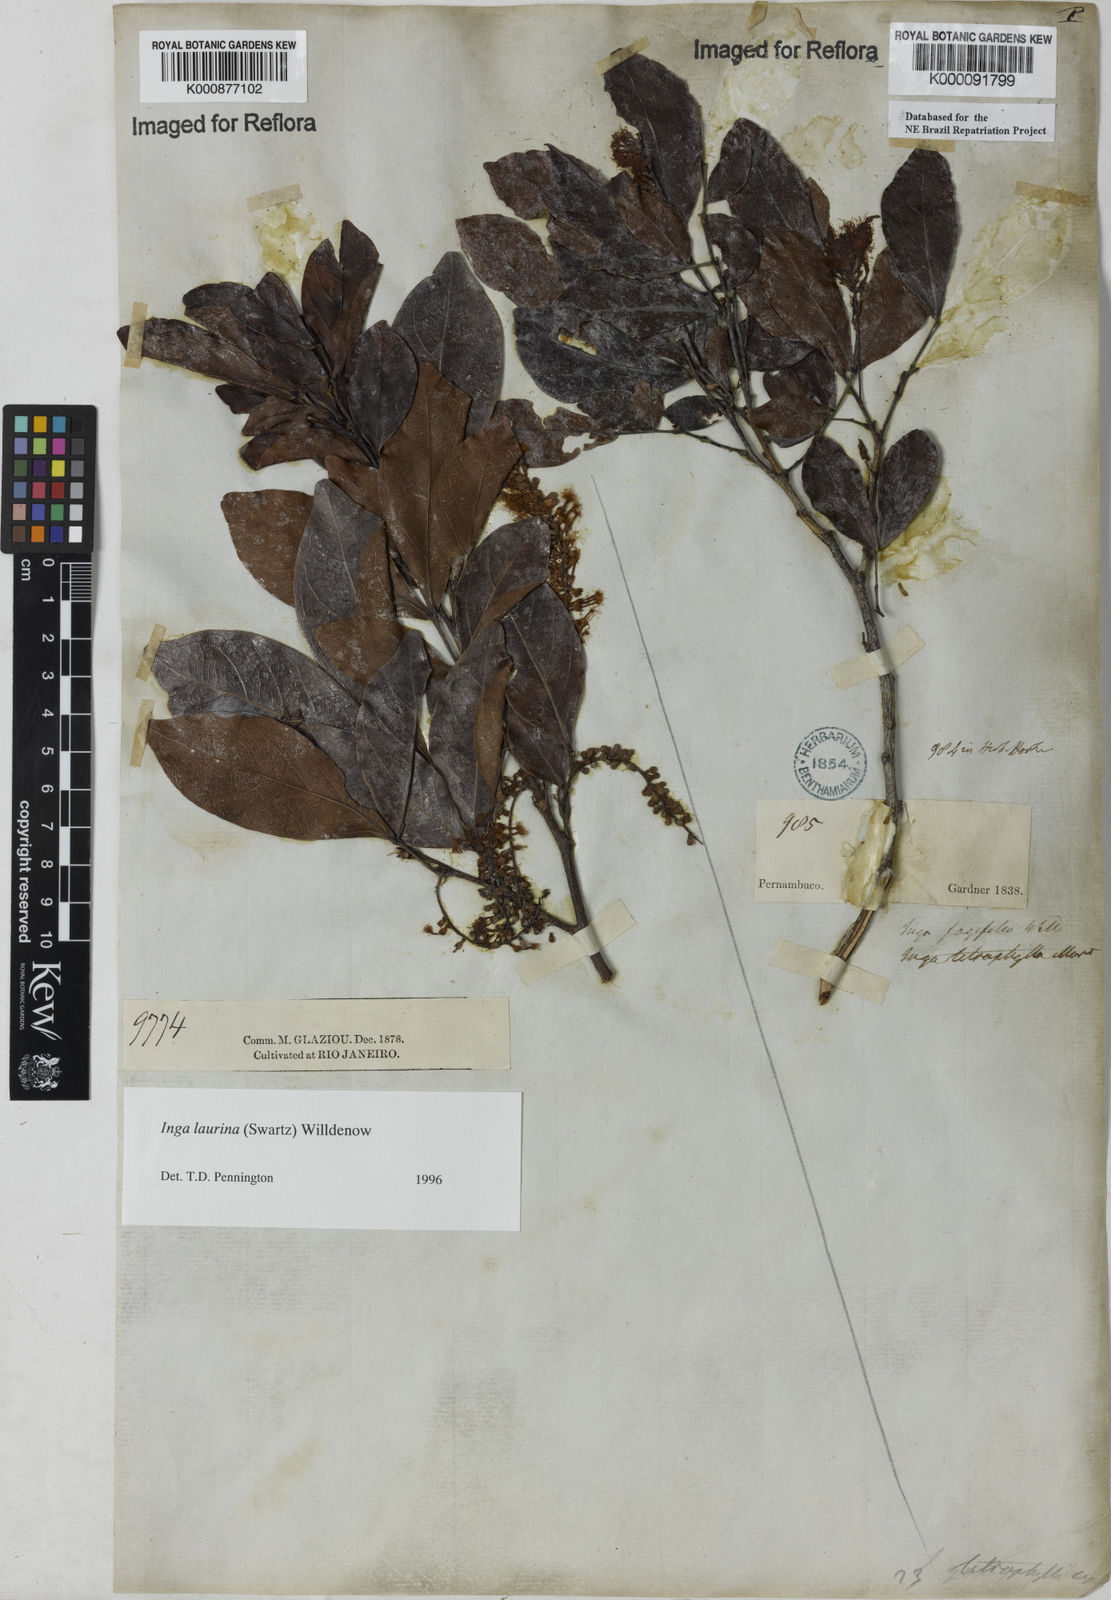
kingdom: Plantae
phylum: Tracheophyta
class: Magnoliopsida
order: Fabales
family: Fabaceae
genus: Inga
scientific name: Inga affinis
